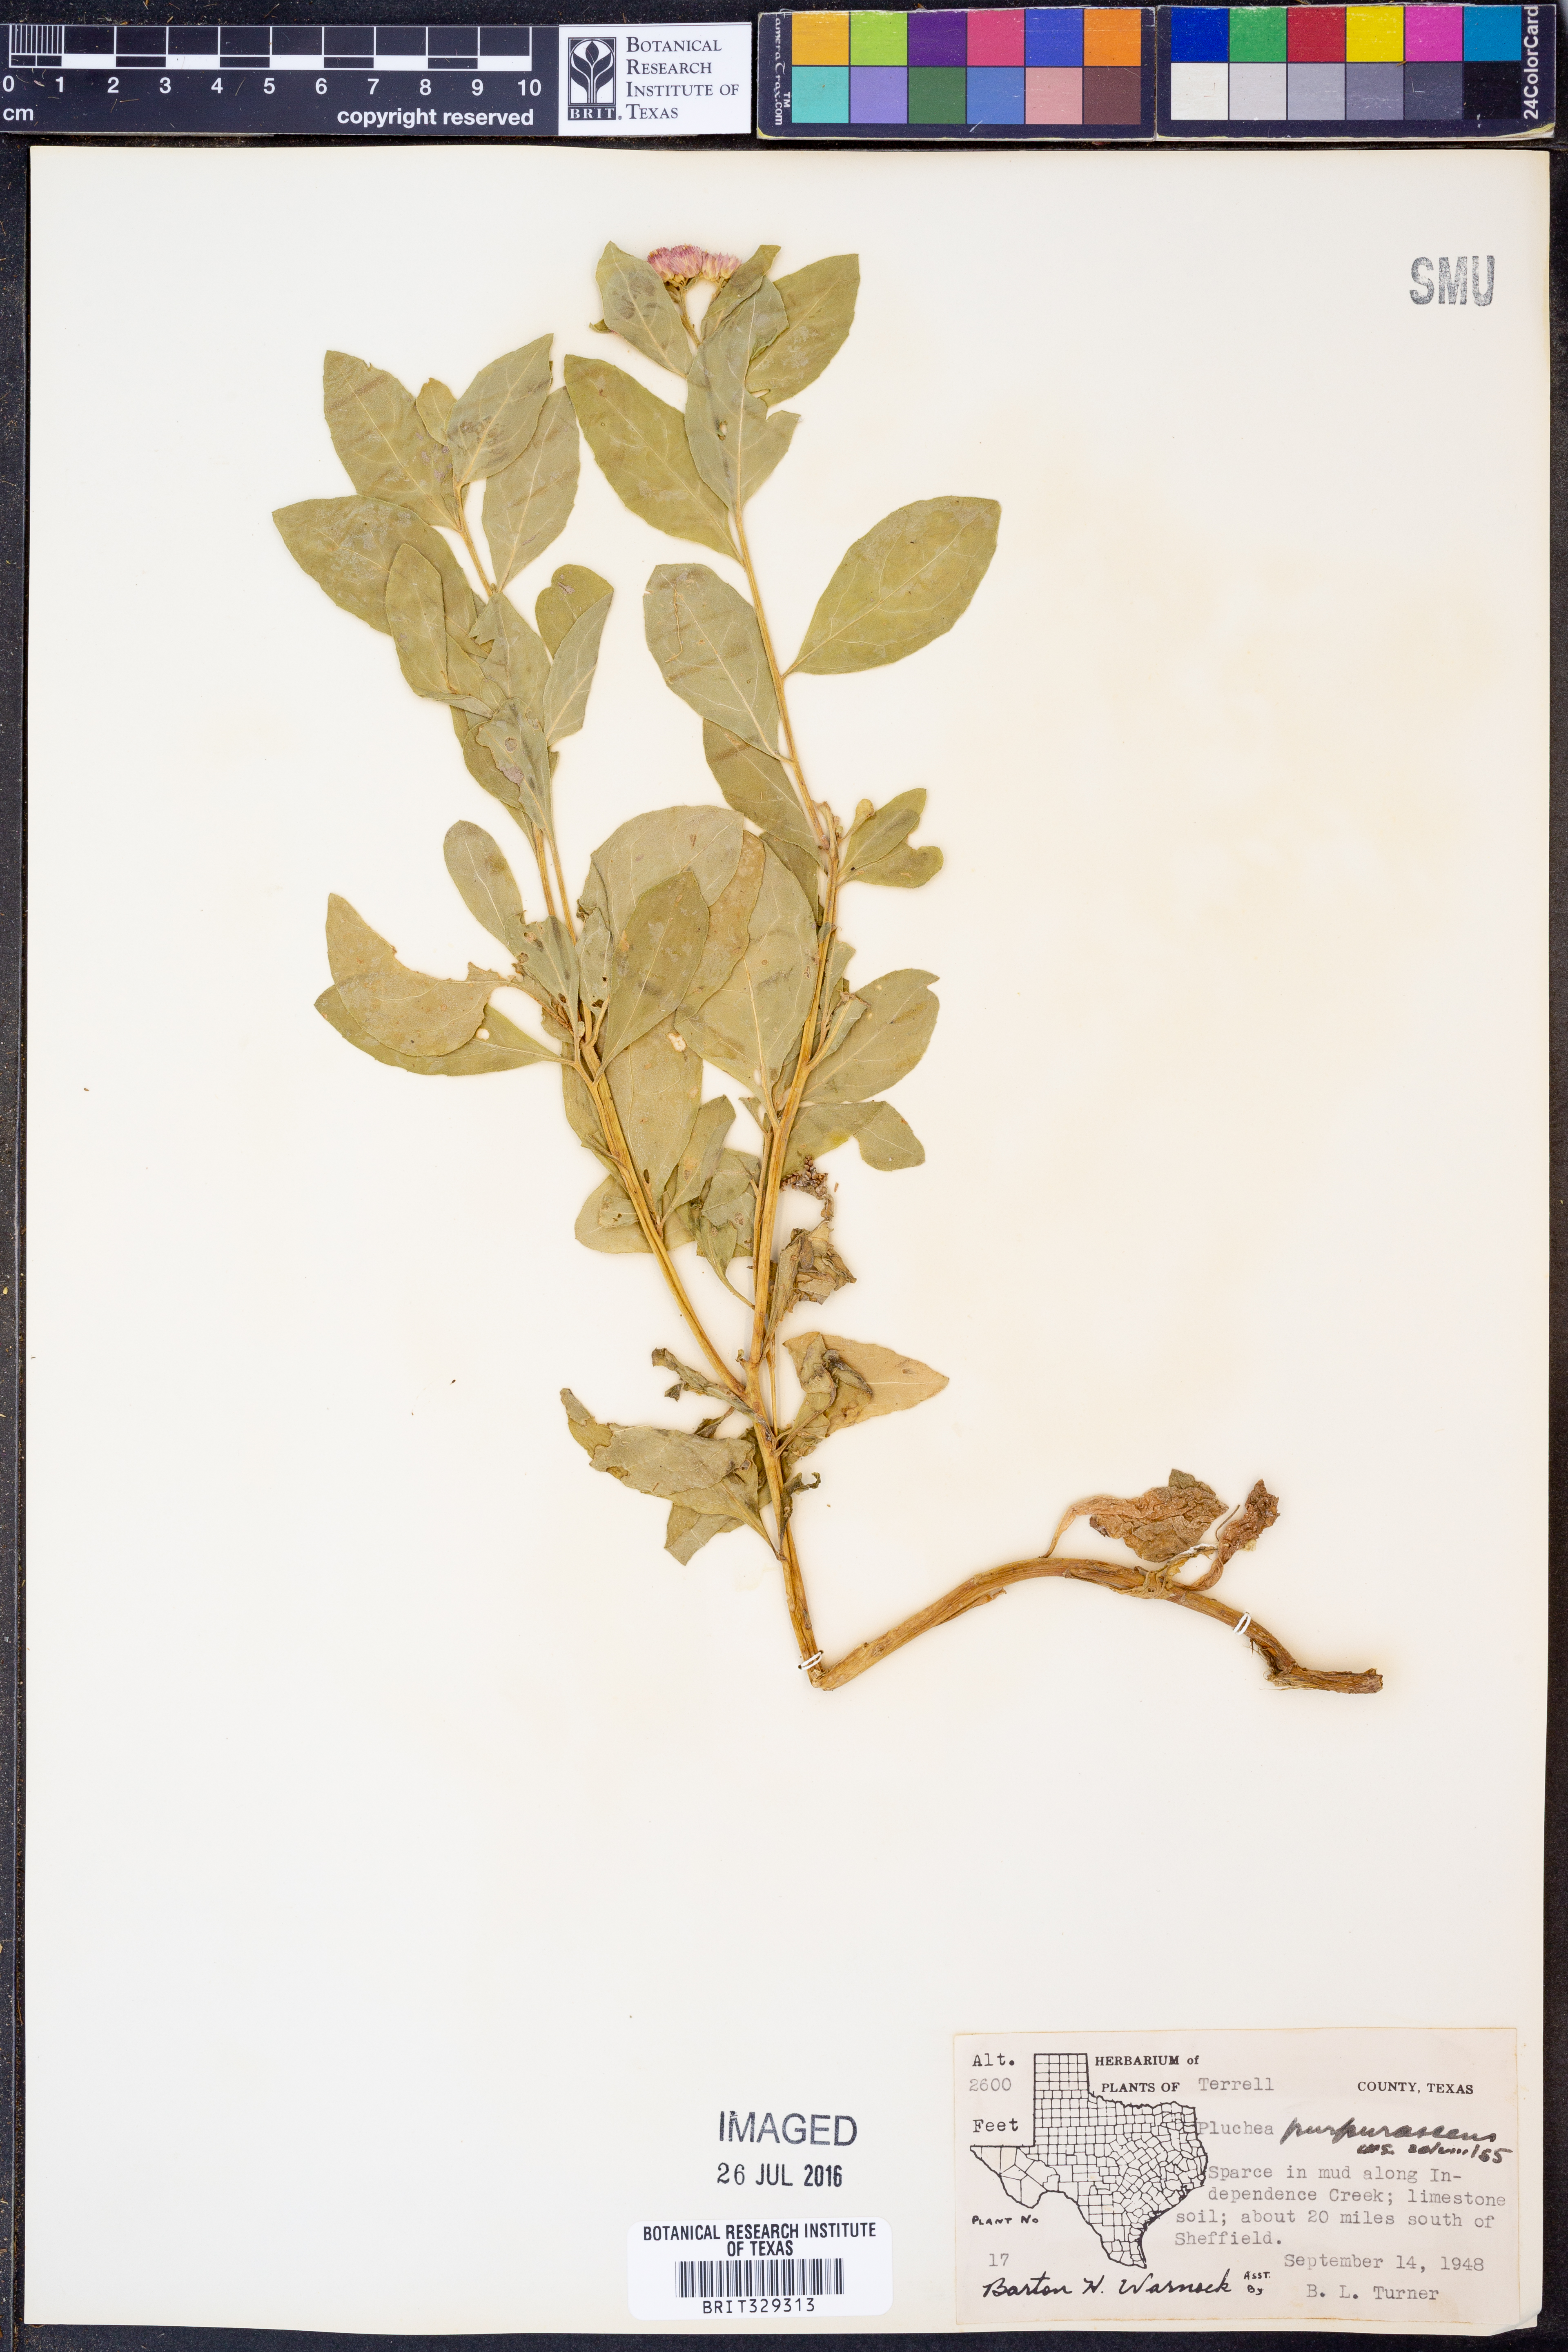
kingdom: Plantae
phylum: Tracheophyta
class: Magnoliopsida
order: Asterales
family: Asteraceae
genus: Pluchea
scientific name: Pluchea odorata
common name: Saltmarsh fleabane
